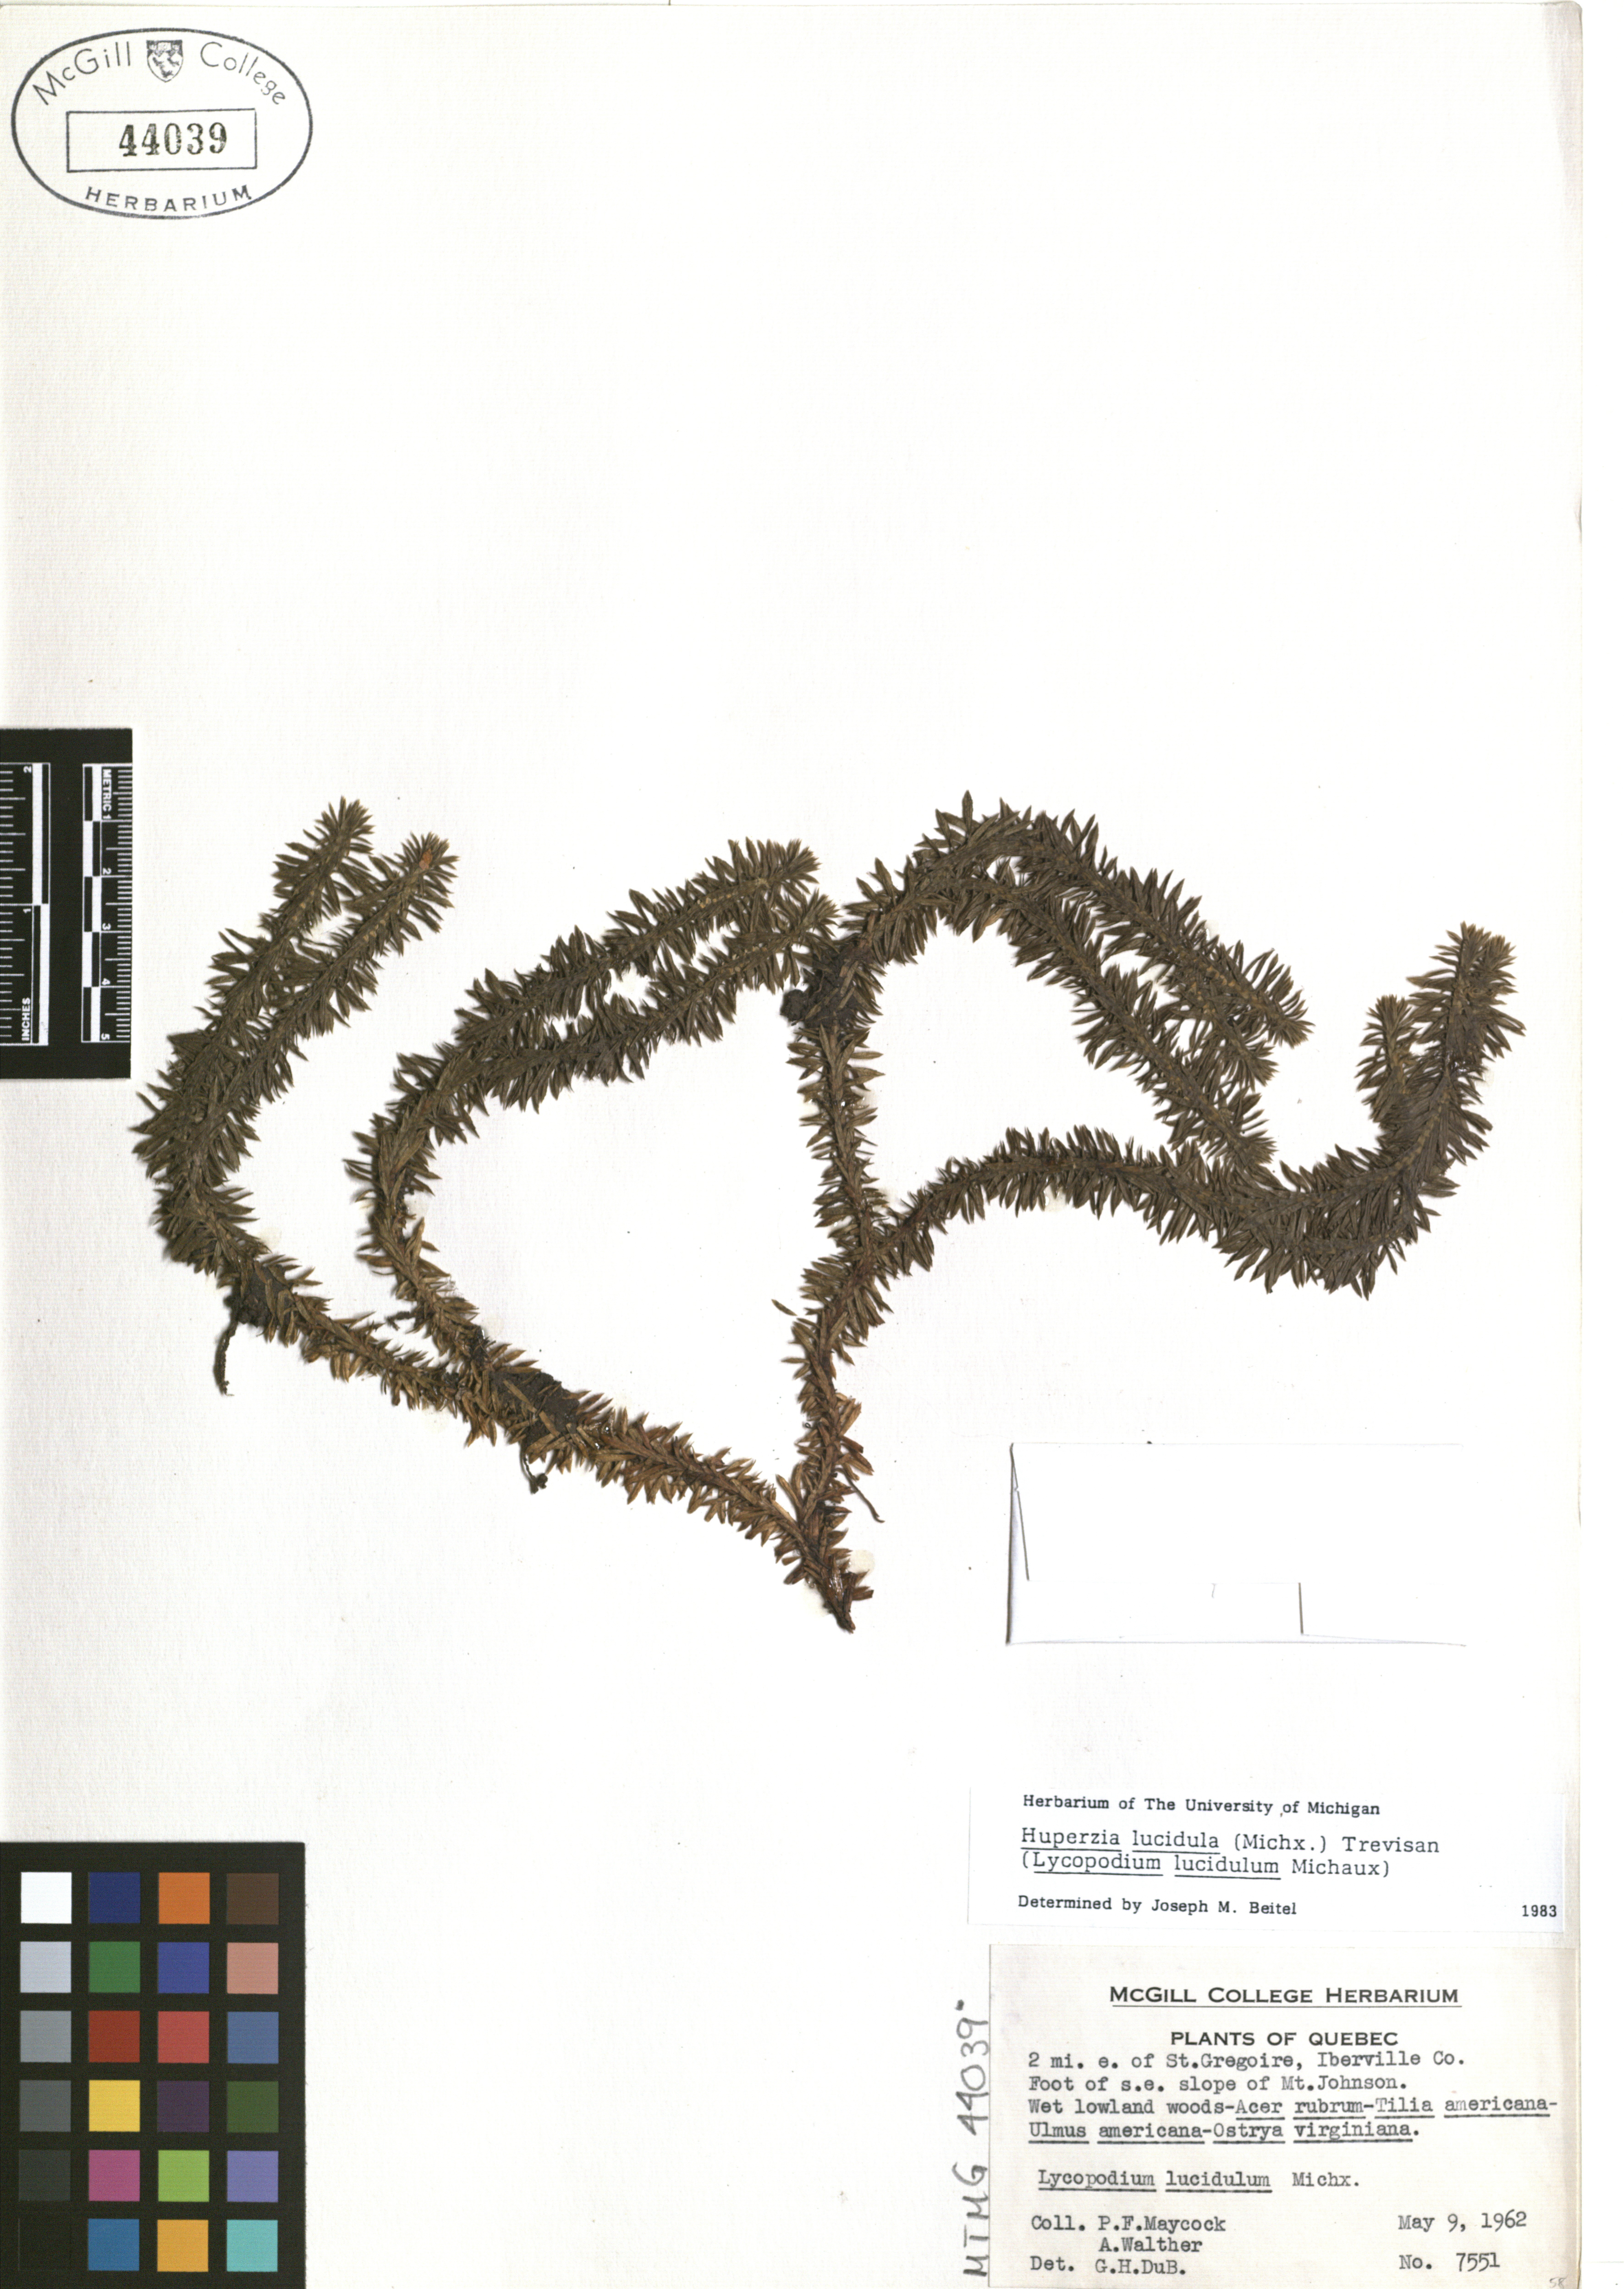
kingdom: Plantae
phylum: Tracheophyta
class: Lycopodiopsida
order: Lycopodiales
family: Lycopodiaceae
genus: Huperzia
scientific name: Huperzia lucidula
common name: Shining clubmoss
